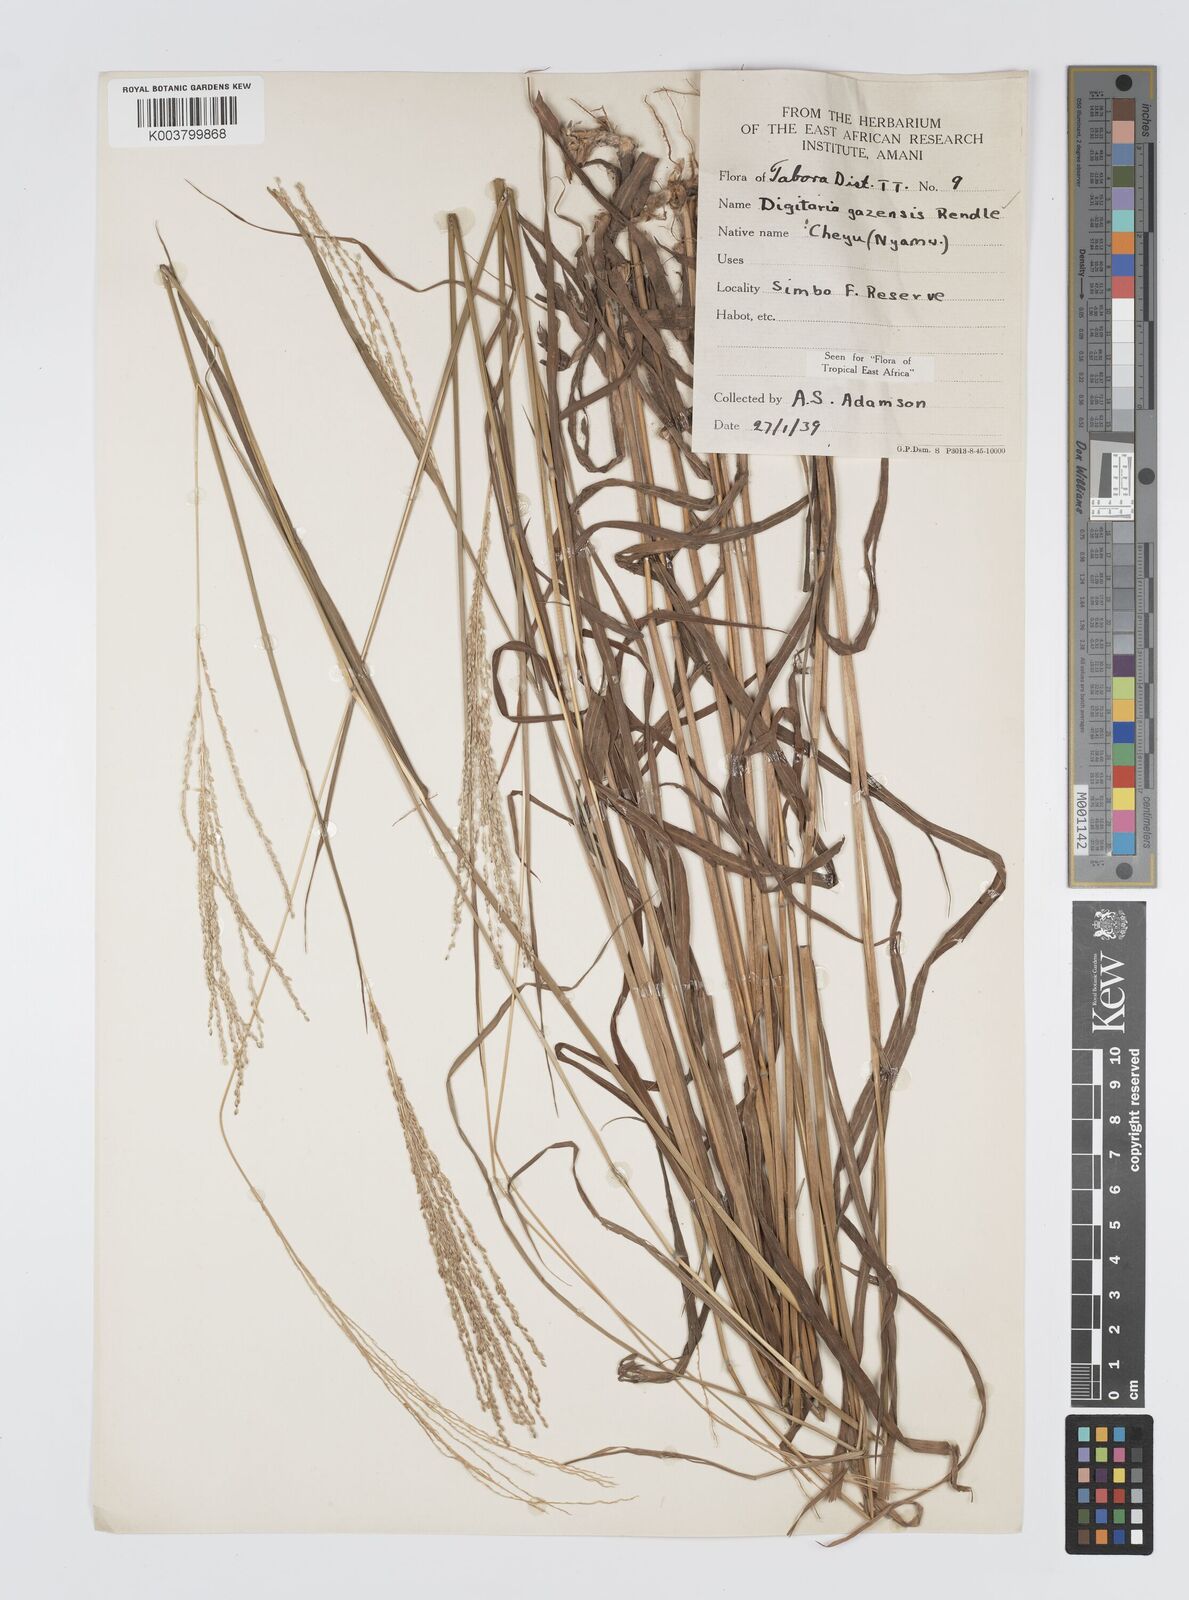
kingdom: Plantae
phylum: Tracheophyta
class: Liliopsida
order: Poales
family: Poaceae
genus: Digitaria
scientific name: Digitaria gazensis
